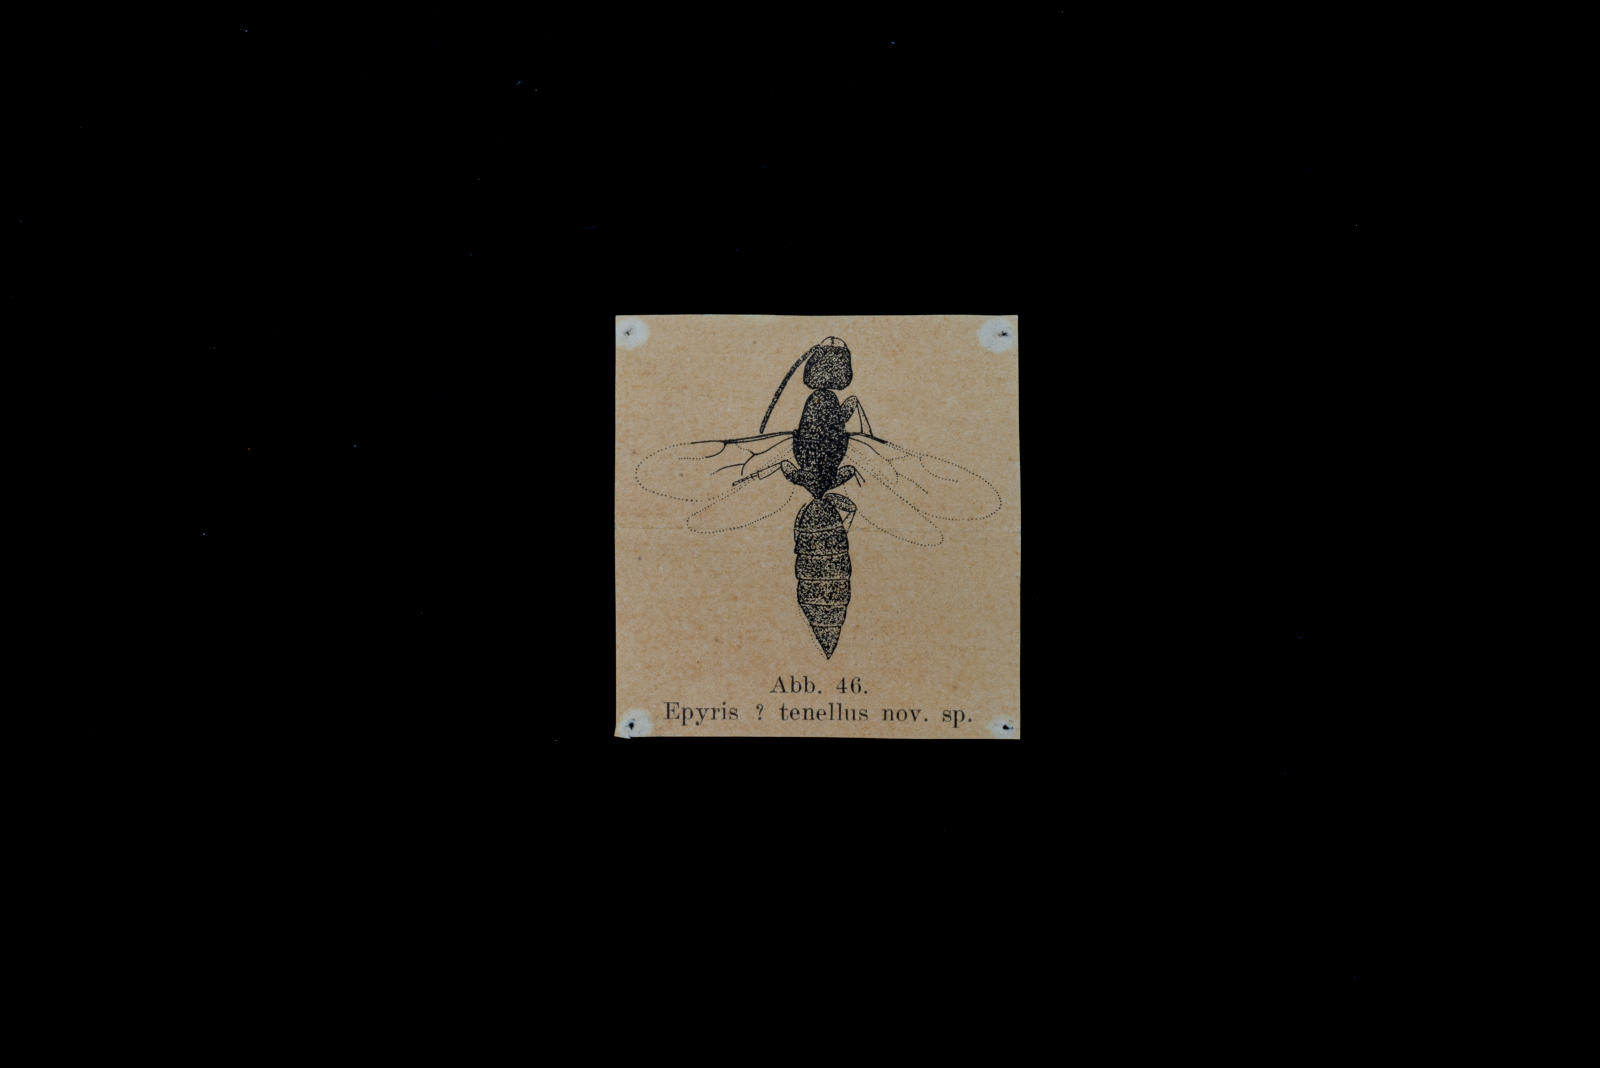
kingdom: Animalia
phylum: Arthropoda
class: Insecta
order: Hymenoptera
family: Bethylidae
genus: Epyris
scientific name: Epyris tenellus
